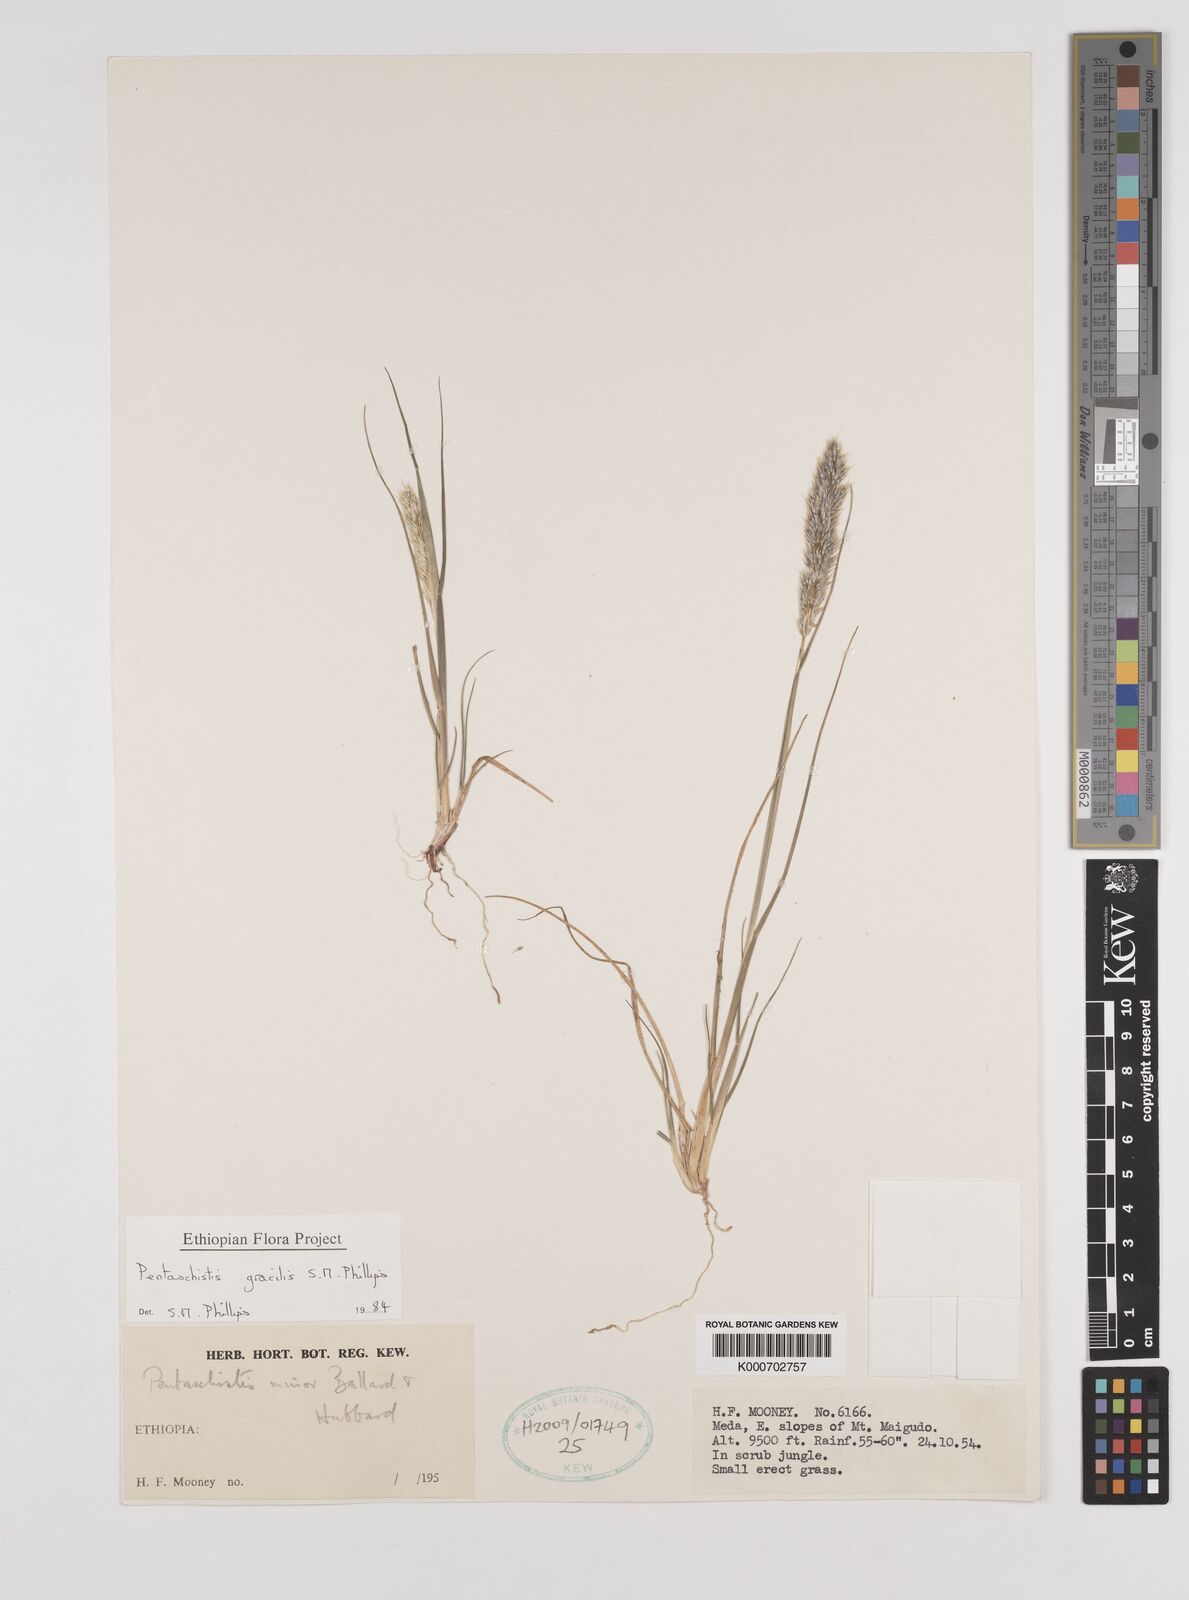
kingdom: Plantae
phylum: Tracheophyta
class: Liliopsida
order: Poales
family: Poaceae
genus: Pentameris
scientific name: Pentameris pictigluma
